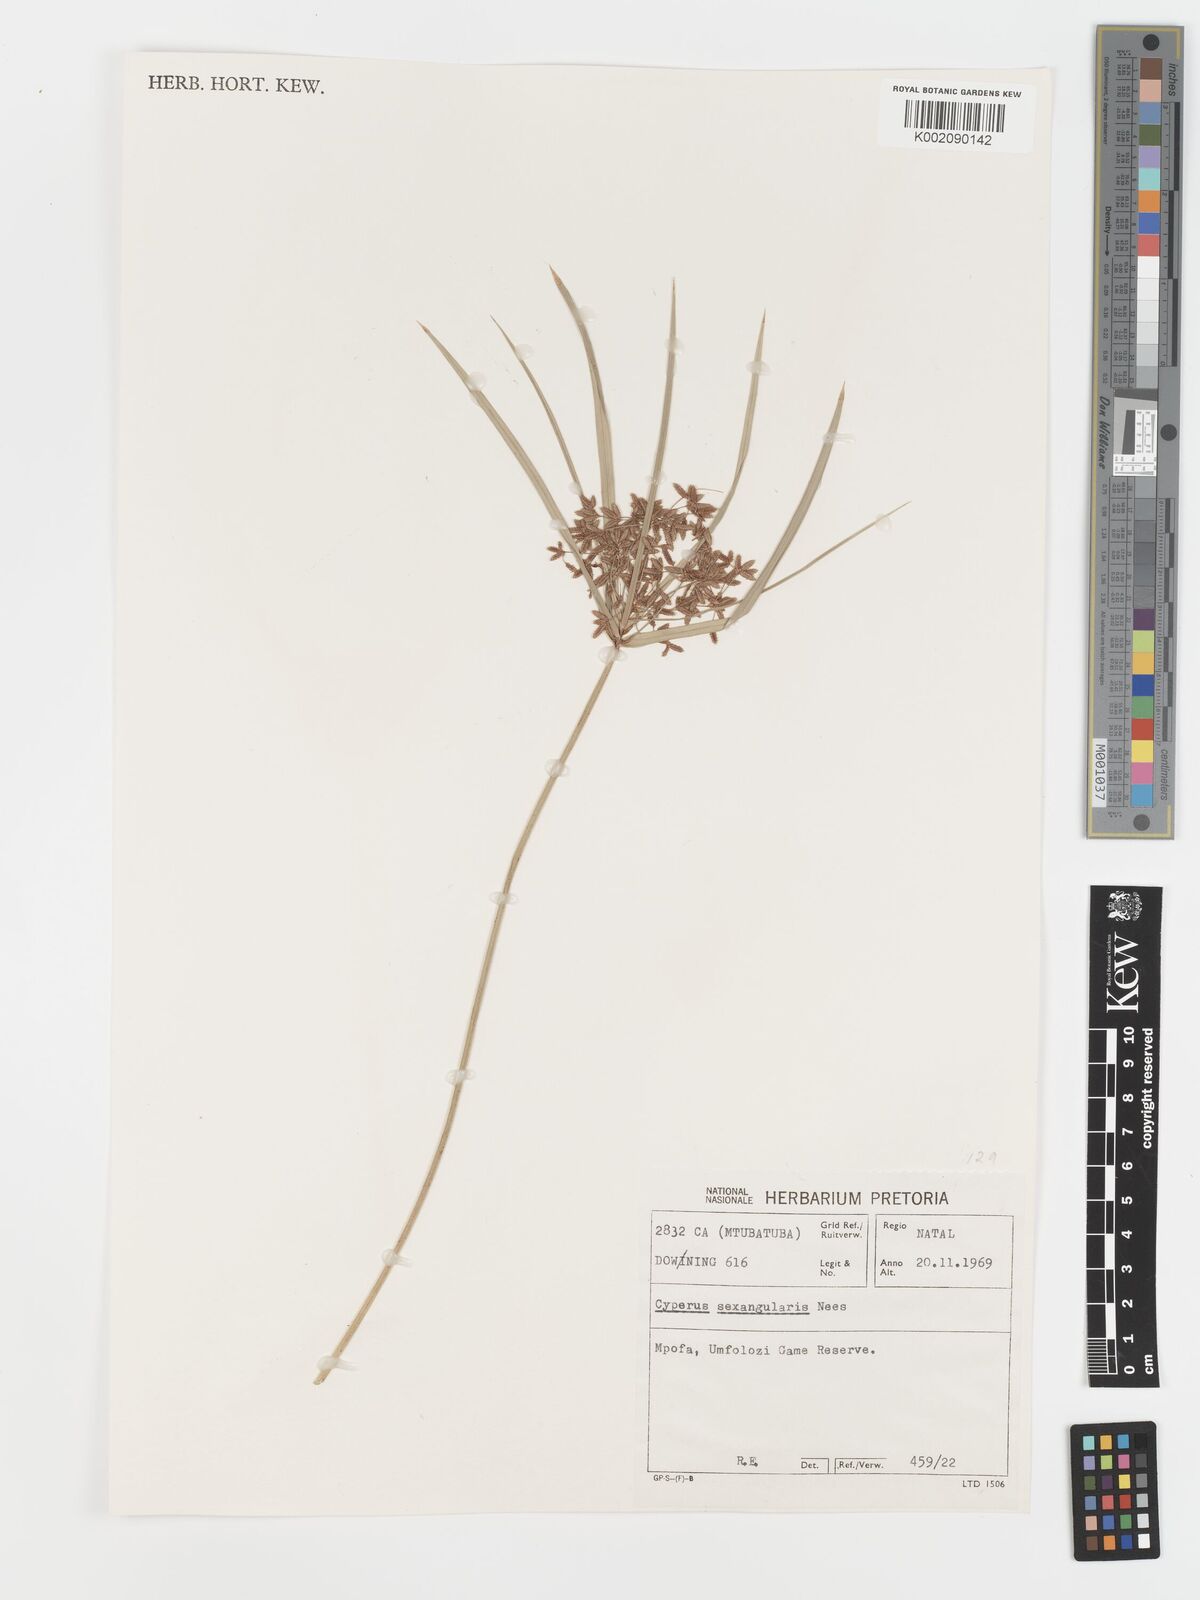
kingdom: Plantae
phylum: Tracheophyta
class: Liliopsida
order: Poales
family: Cyperaceae
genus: Cyperus
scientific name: Cyperus sexangularis
